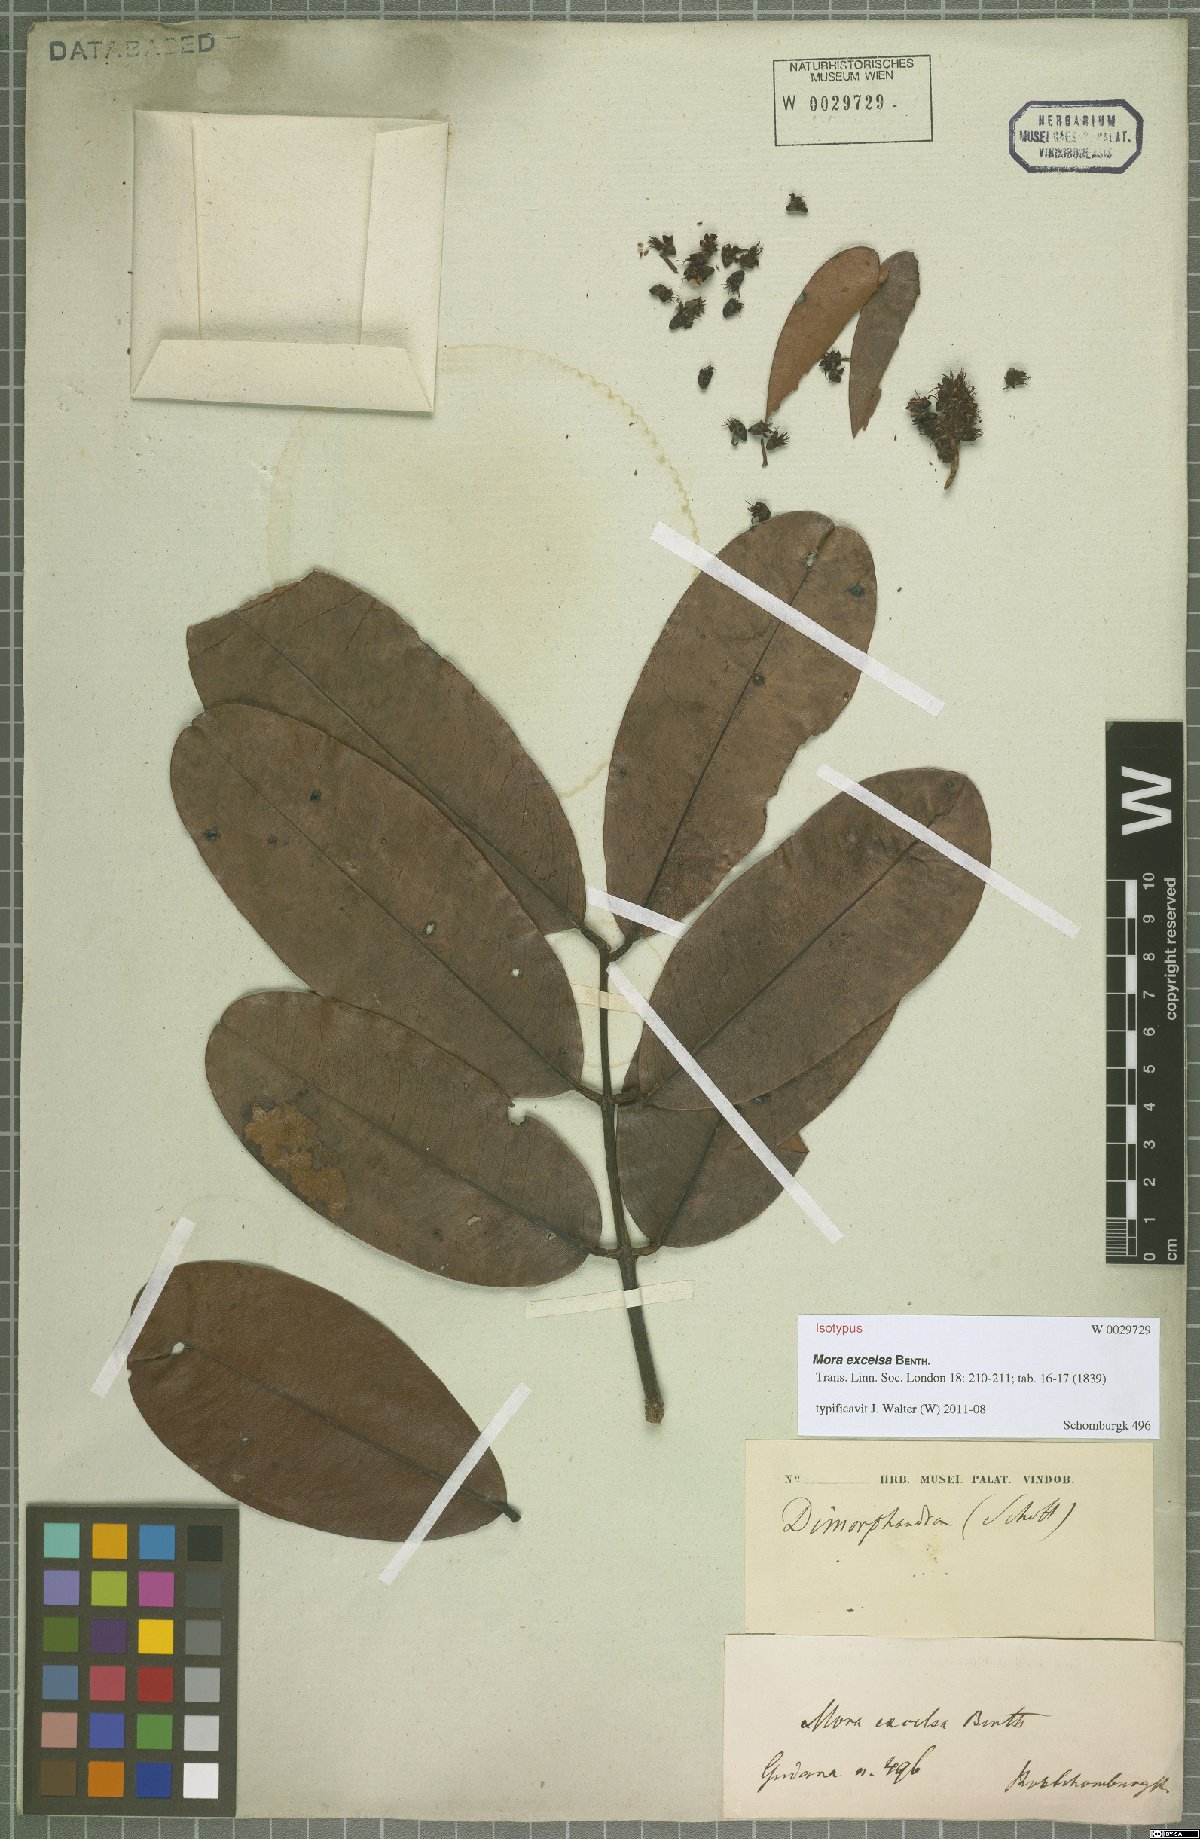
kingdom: Plantae
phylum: Tracheophyta
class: Magnoliopsida
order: Fabales
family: Fabaceae
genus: Mora
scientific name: Mora excelsa
